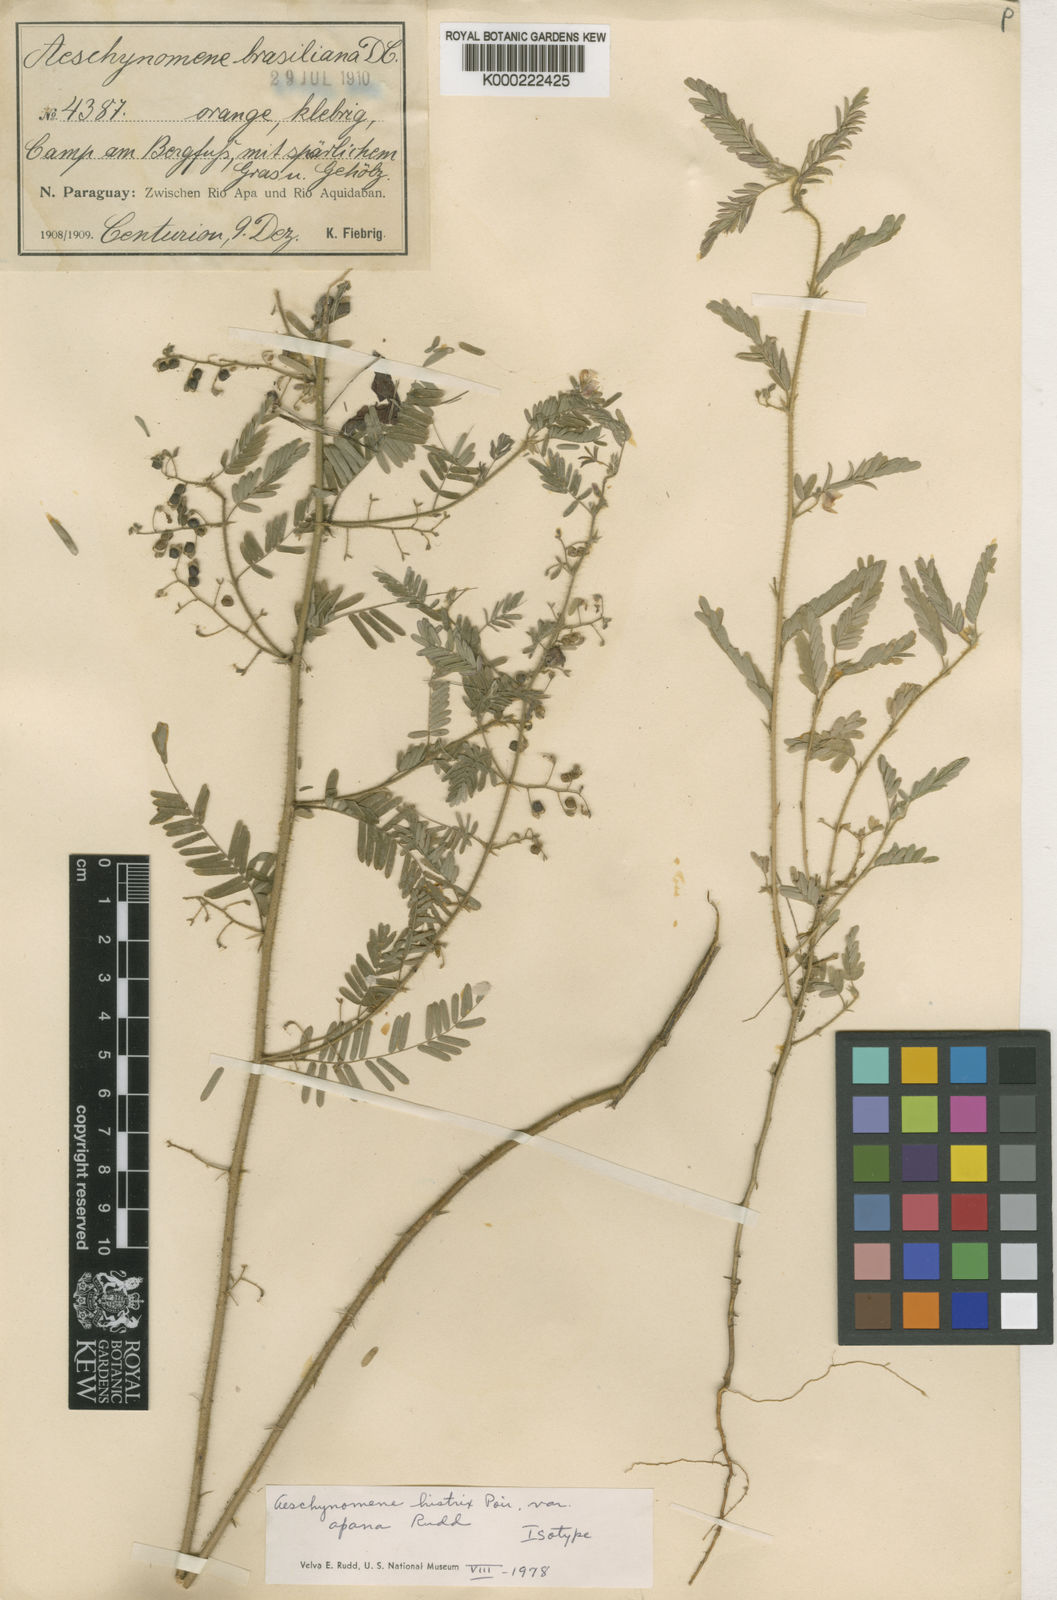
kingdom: Plantae
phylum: Tracheophyta
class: Magnoliopsida
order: Fabales
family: Fabaceae
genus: Ctenodon
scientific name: Ctenodon histrix
